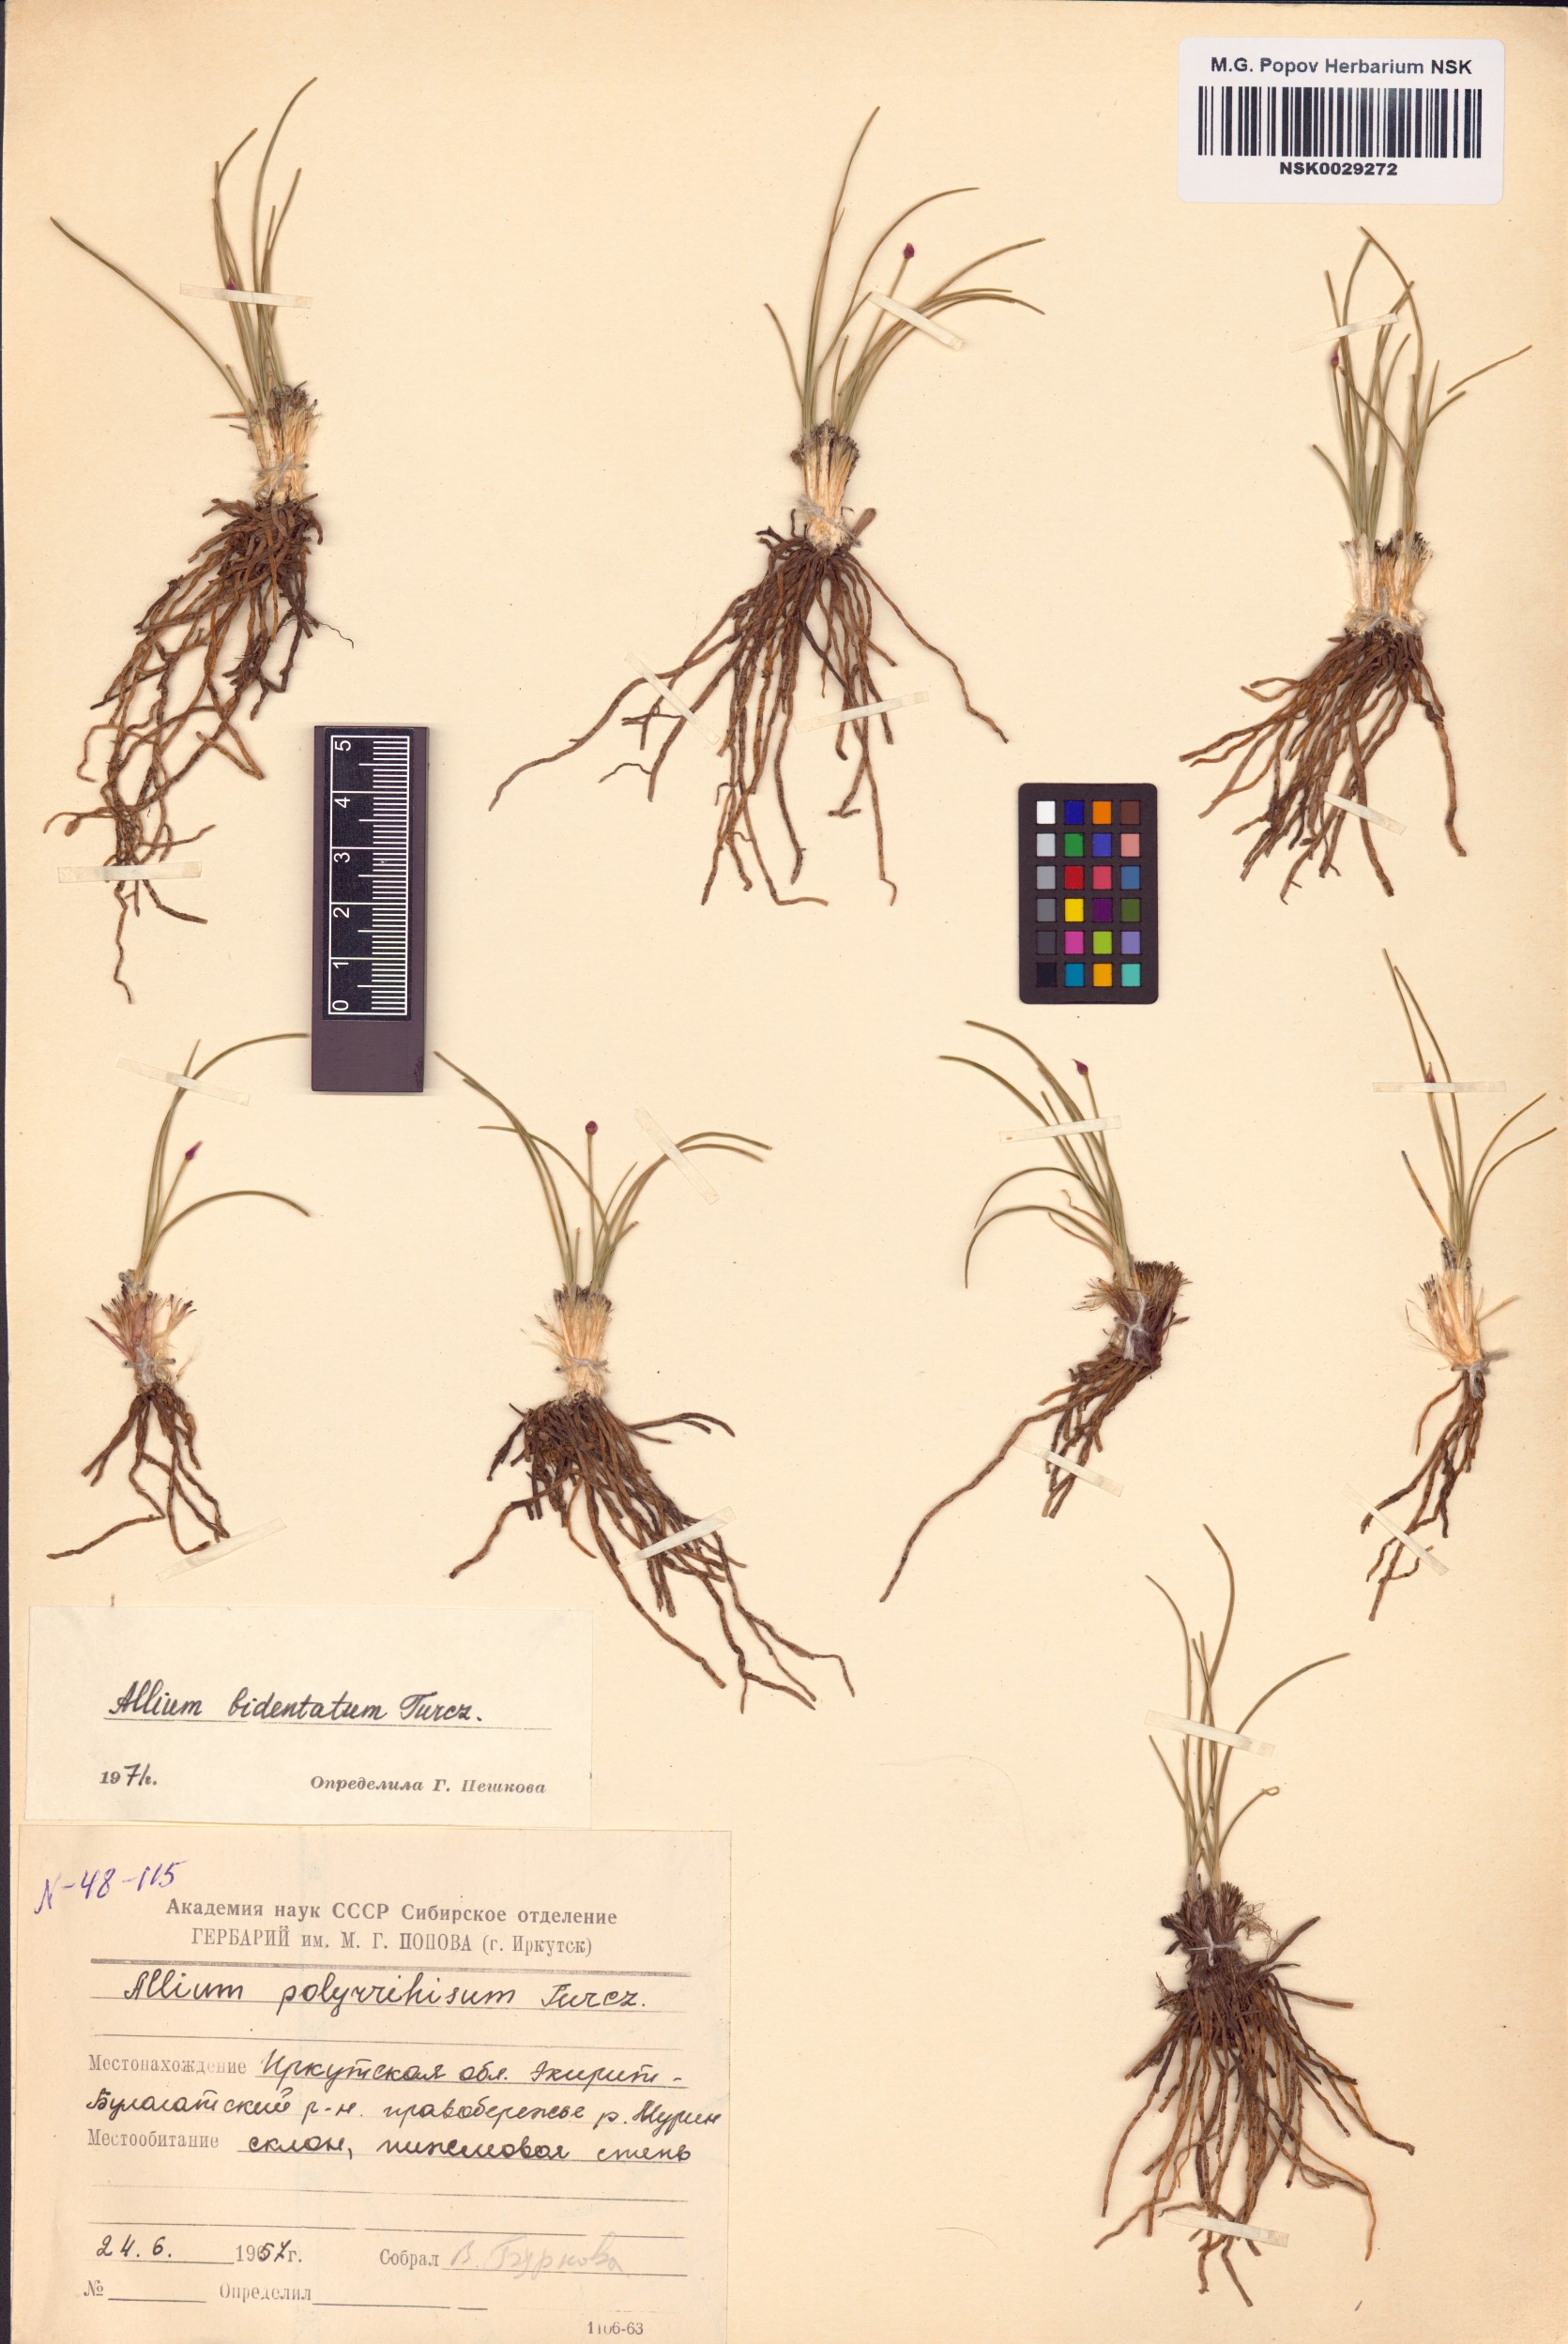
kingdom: Plantae
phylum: Tracheophyta
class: Liliopsida
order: Asparagales
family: Amaryllidaceae
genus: Allium
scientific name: Allium bidentatum
